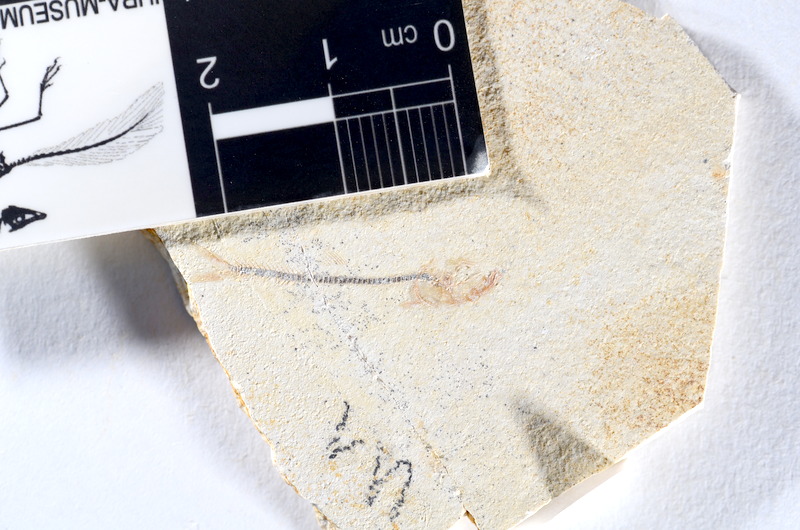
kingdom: Animalia
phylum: Chordata
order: Salmoniformes
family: Orthogonikleithridae
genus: Orthogonikleithrus
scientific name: Orthogonikleithrus hoelli
